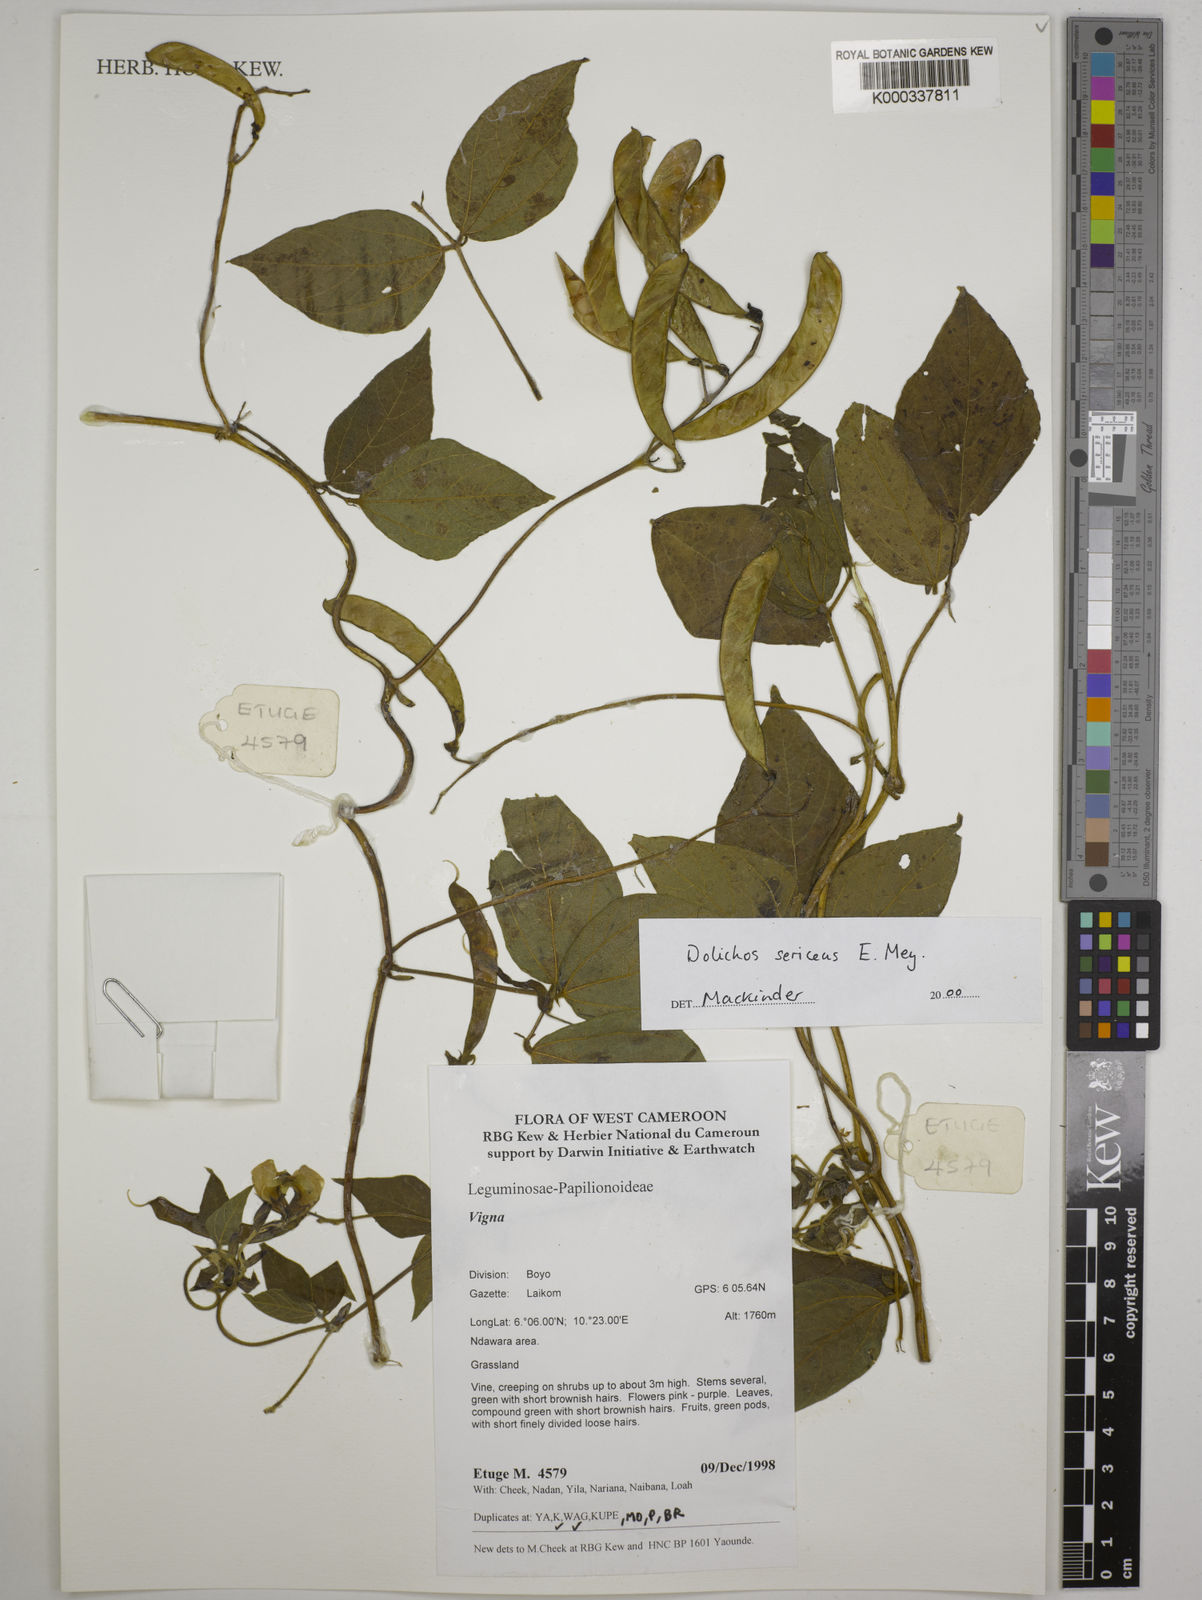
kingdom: Plantae
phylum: Tracheophyta
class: Magnoliopsida
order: Fabales
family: Fabaceae
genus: Dolichos
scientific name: Dolichos sericeus
